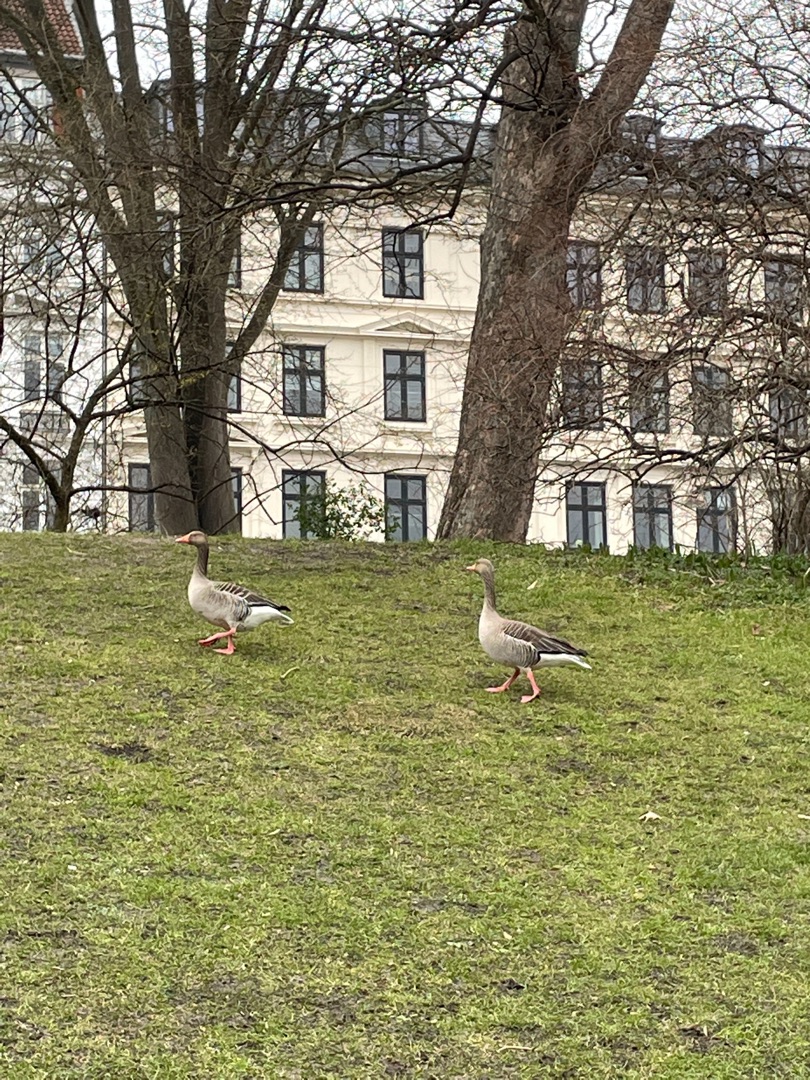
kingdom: Animalia
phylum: Chordata
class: Aves
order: Anseriformes
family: Anatidae
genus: Anser
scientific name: Anser anser
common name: Grågås
